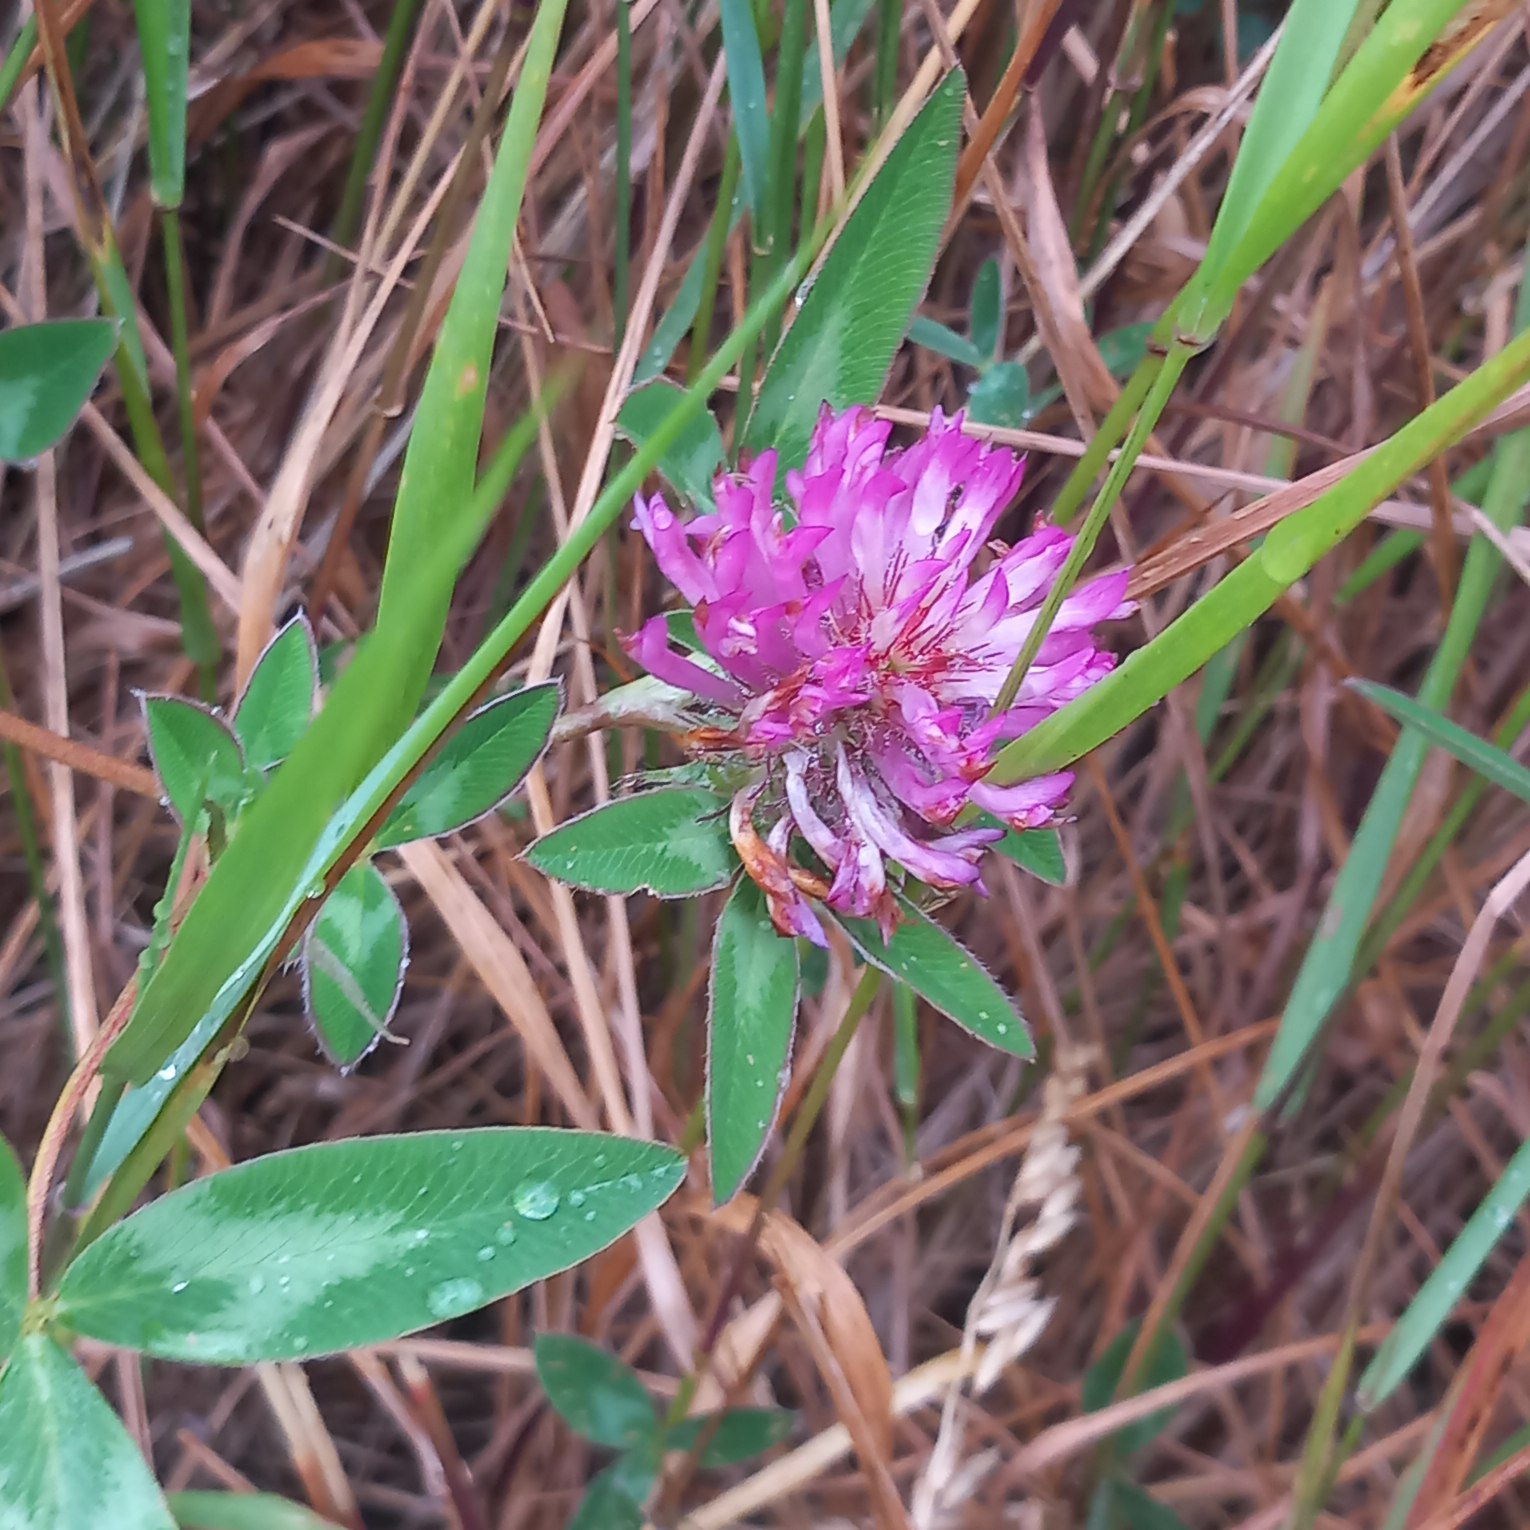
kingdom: Plantae
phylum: Tracheophyta
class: Magnoliopsida
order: Fabales
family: Fabaceae
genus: Trifolium
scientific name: Trifolium medium
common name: Bugtet kløver
